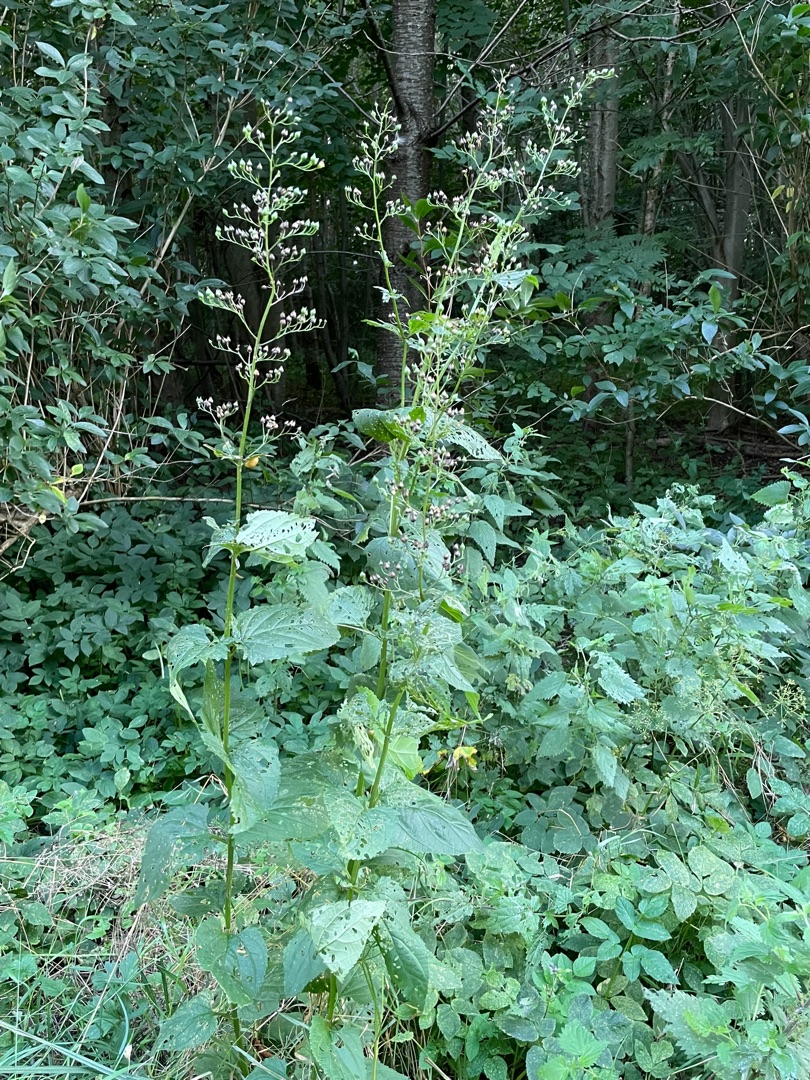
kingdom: Plantae
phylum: Tracheophyta
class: Magnoliopsida
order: Lamiales
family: Scrophulariaceae
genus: Scrophularia
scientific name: Scrophularia nodosa
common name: Knoldet brunrod
